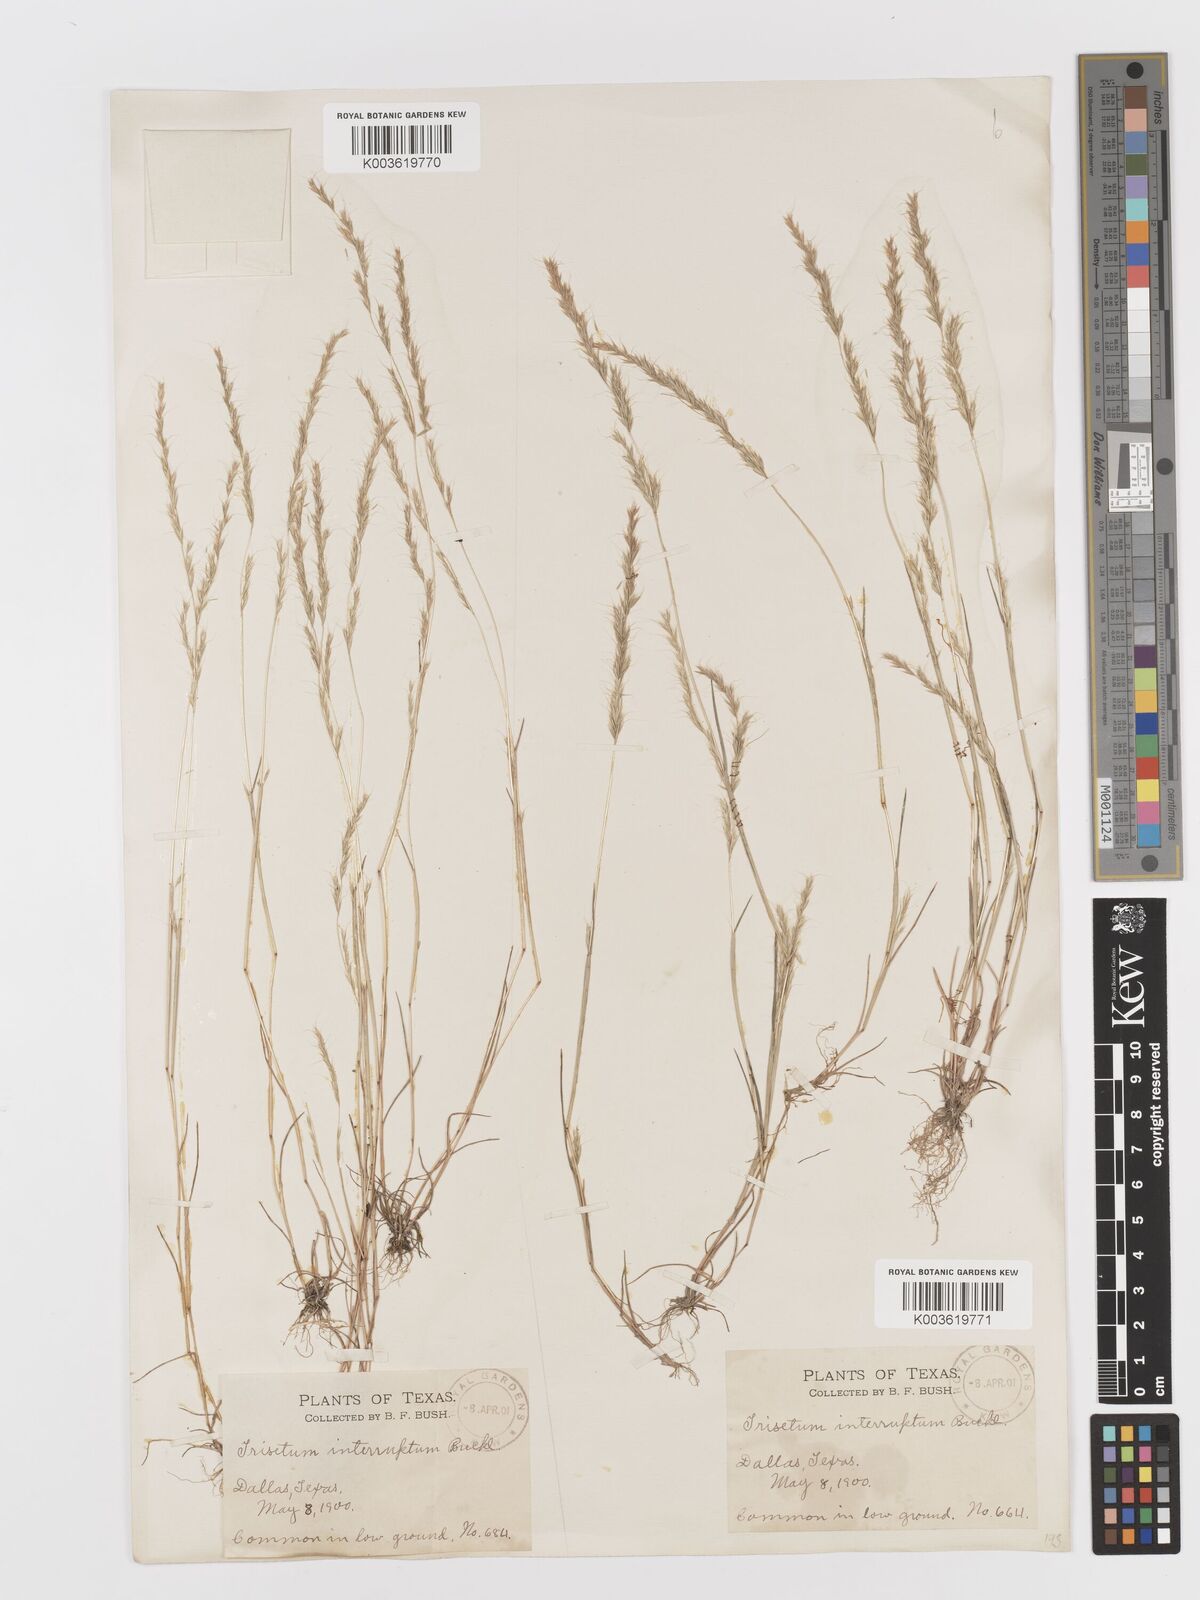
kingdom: Plantae
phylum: Tracheophyta
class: Liliopsida
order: Poales
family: Poaceae
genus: Sphenopholis
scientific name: Sphenopholis interrupta
